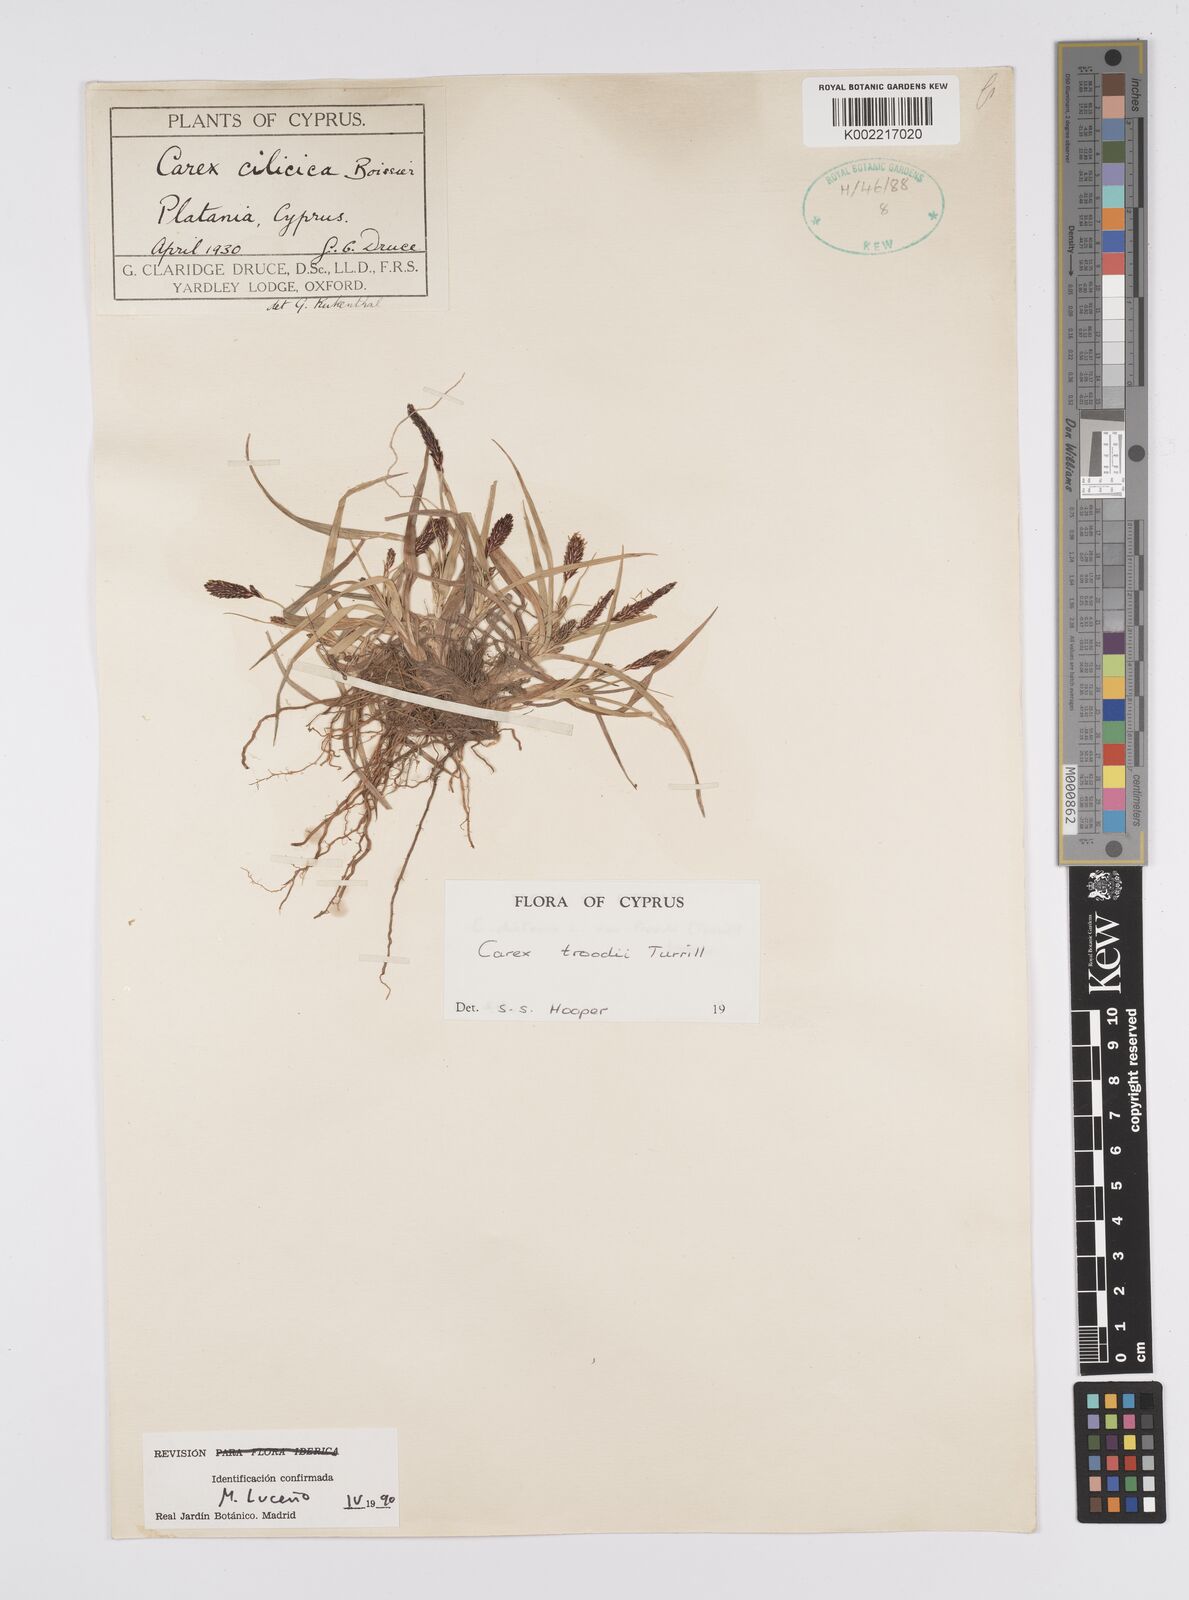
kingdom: Plantae
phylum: Tracheophyta
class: Liliopsida
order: Poales
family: Cyperaceae
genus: Carex
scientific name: Carex troodi
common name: Troodos mount sedge
